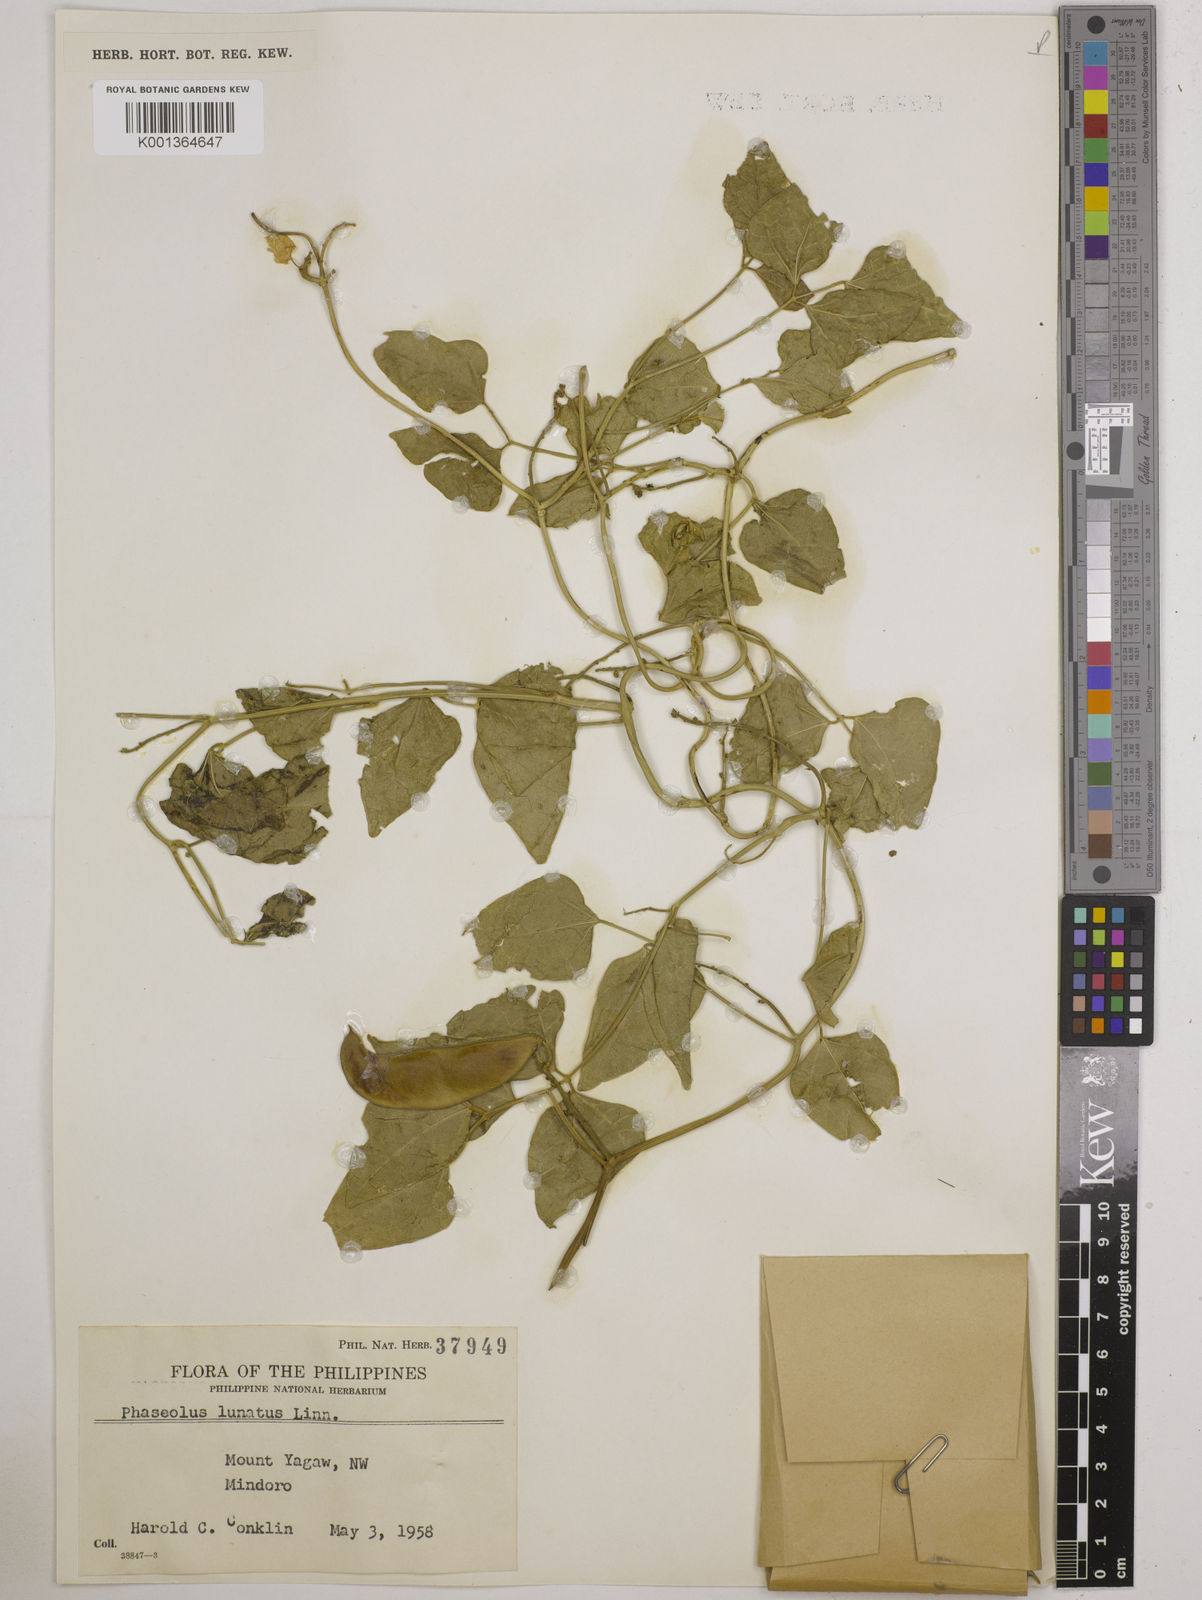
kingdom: Plantae
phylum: Tracheophyta
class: Magnoliopsida
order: Fabales
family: Fabaceae
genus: Phaseolus
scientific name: Phaseolus lunatus
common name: Sieva bean
